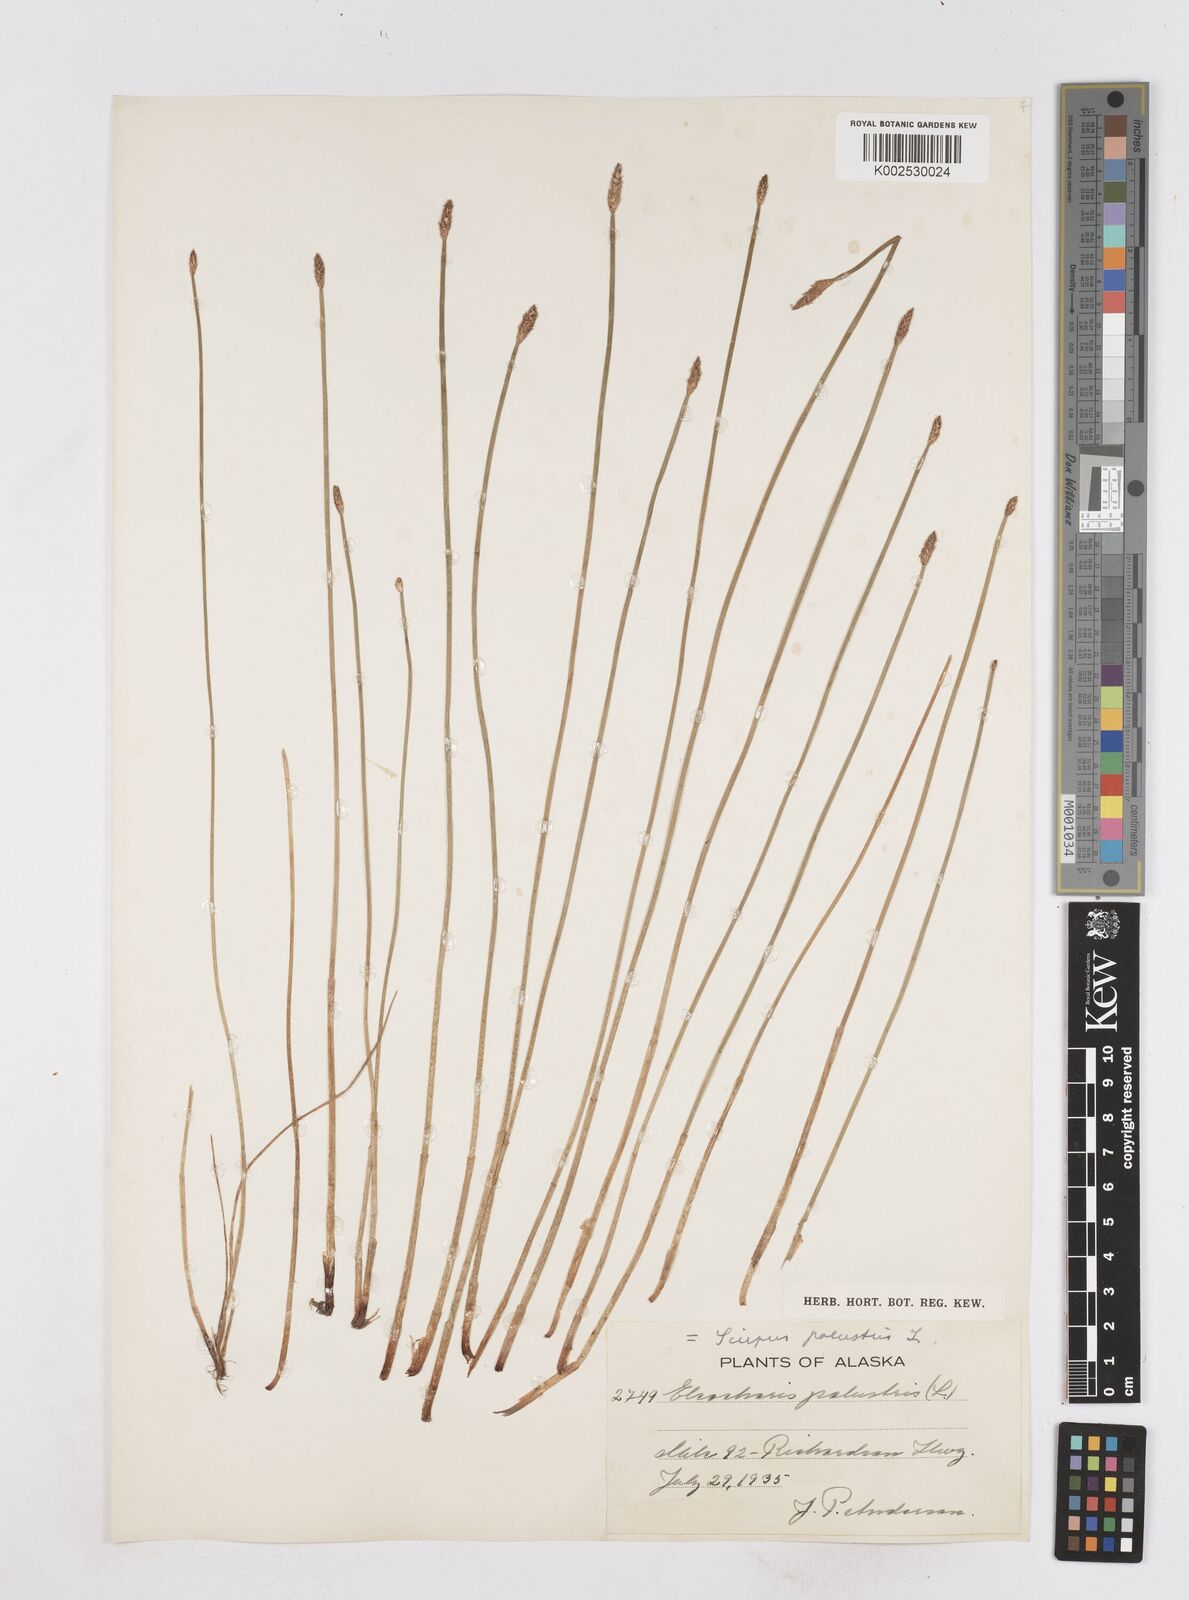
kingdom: Plantae
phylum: Tracheophyta
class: Liliopsida
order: Poales
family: Cyperaceae
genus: Eleocharis
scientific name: Eleocharis palustris
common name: Common spike-rush
